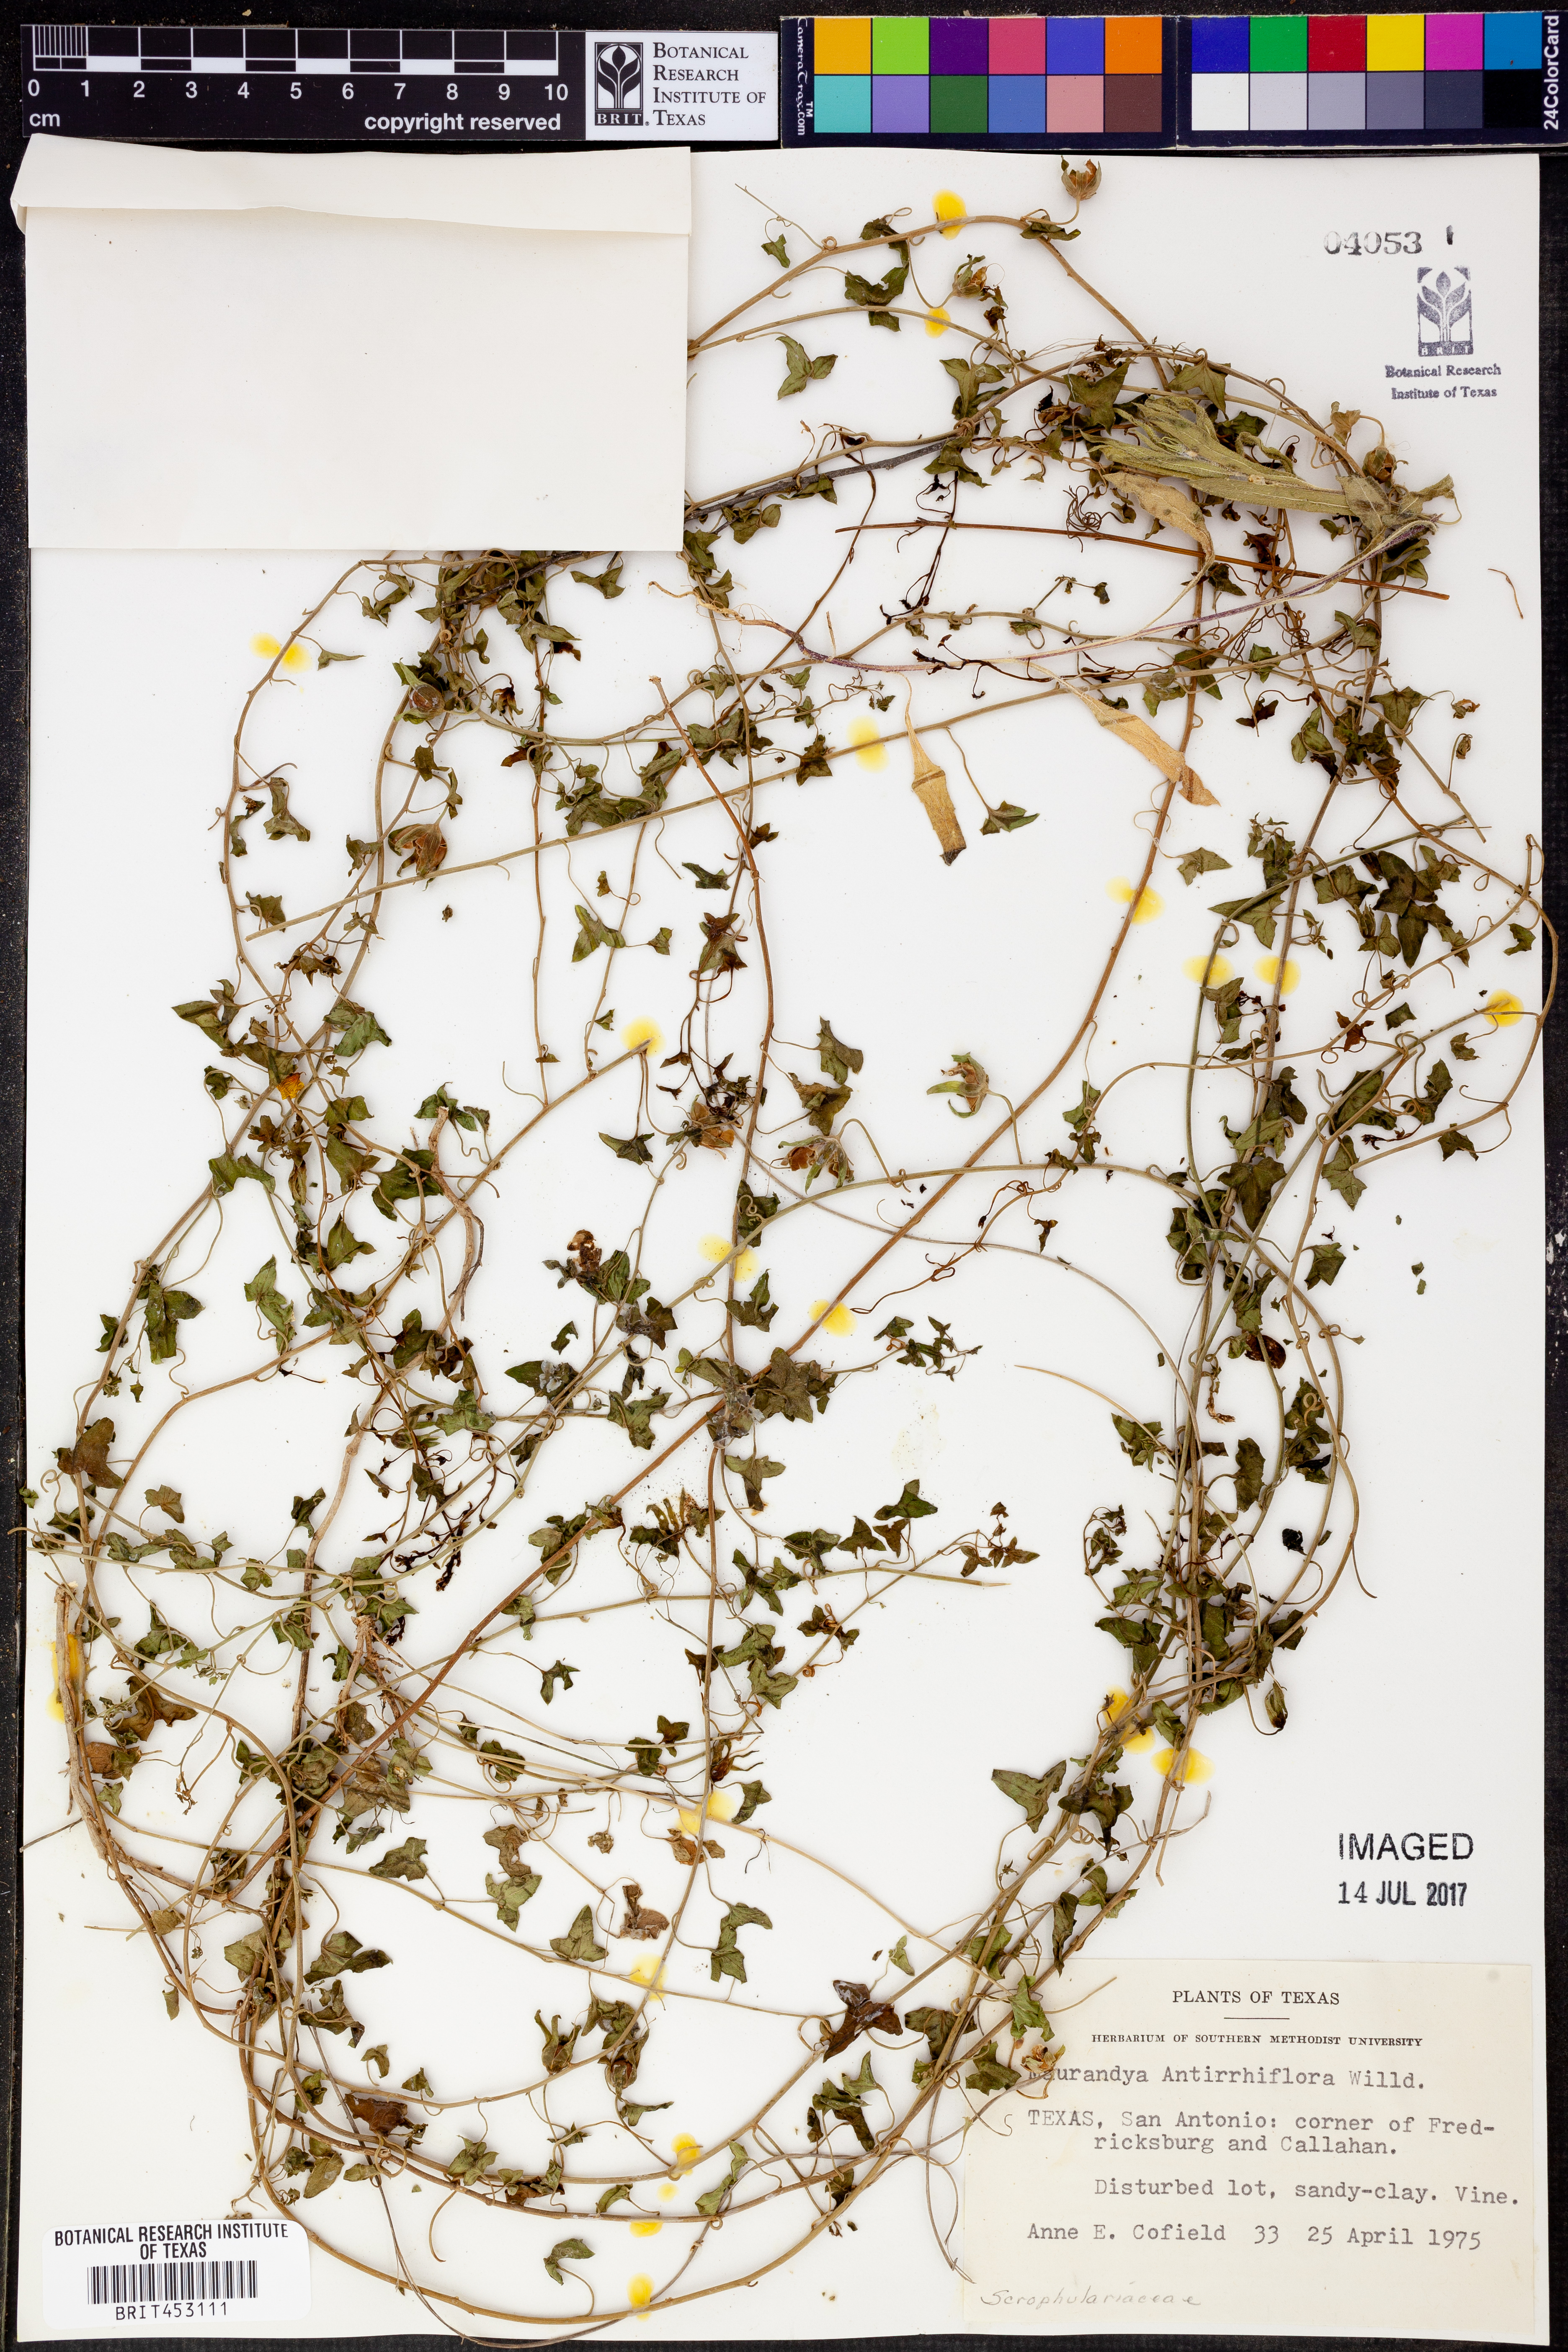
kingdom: Plantae
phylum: Tracheophyta
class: Magnoliopsida
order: Lamiales
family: Plantaginaceae
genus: Maurandella
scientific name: Maurandella antirrhiniflora
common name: Violet twining-snapdragon
